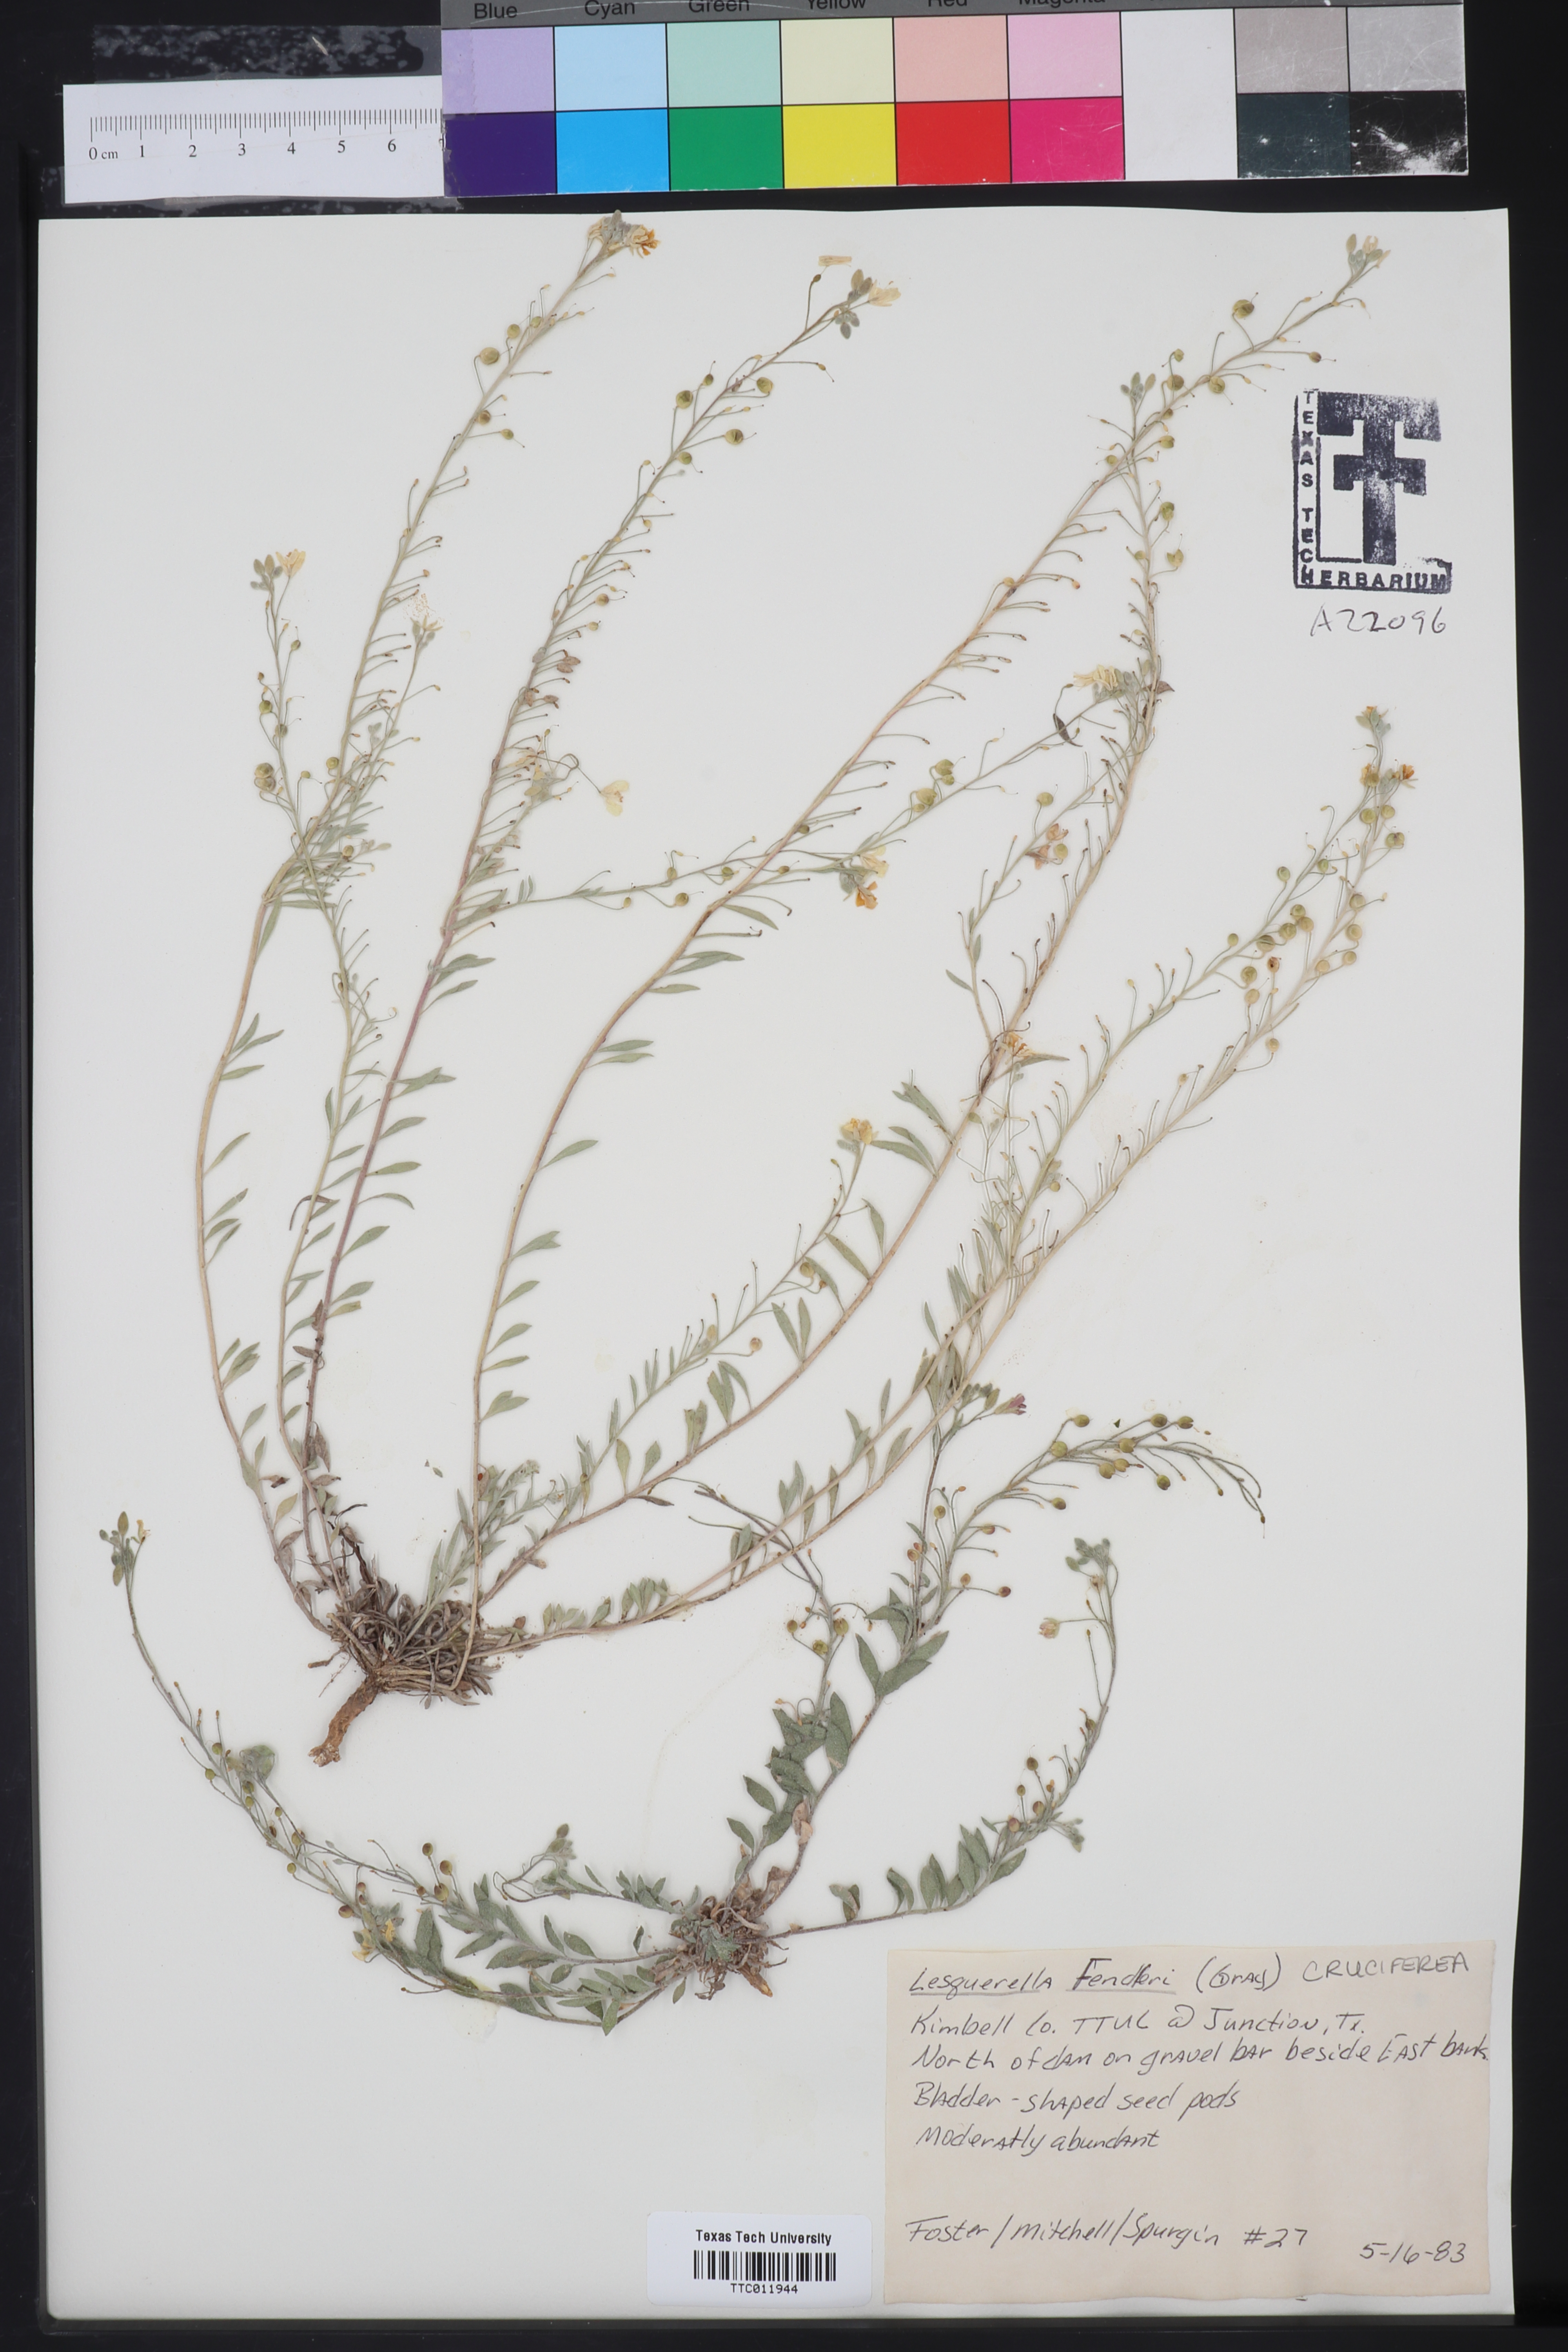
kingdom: Plantae
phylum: Tracheophyta
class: Magnoliopsida
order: Brassicales
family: Brassicaceae
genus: Physaria
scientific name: Physaria fendleri
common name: Fendler's bladderpod
